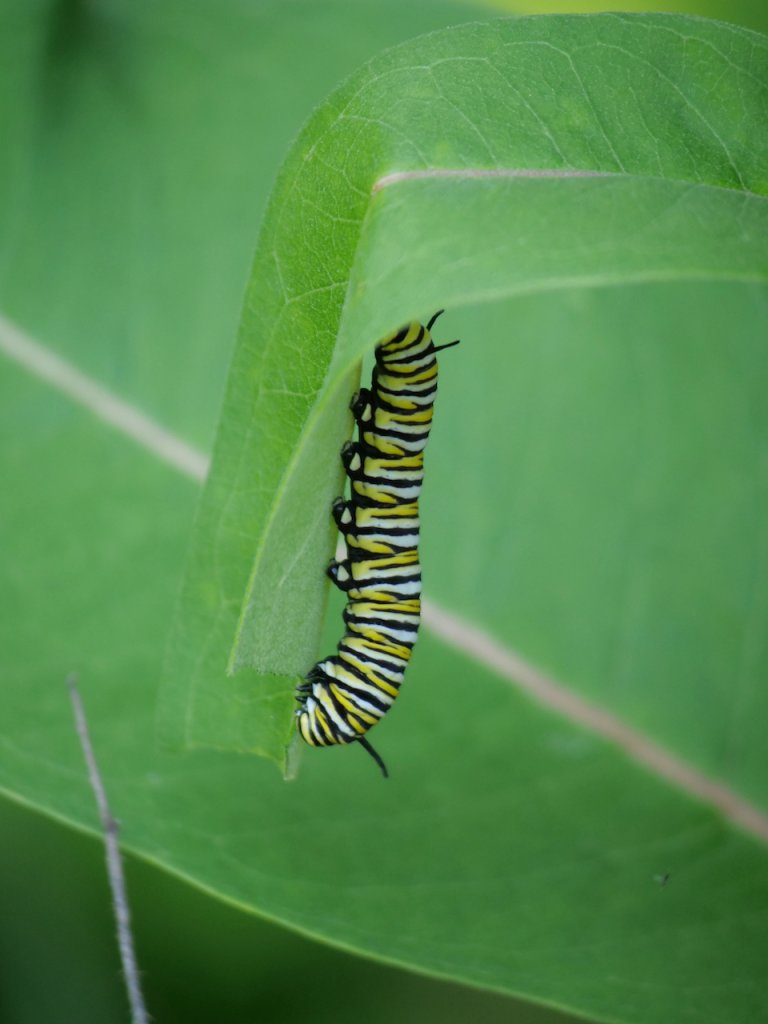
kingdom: Animalia
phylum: Arthropoda
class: Insecta
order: Lepidoptera
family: Nymphalidae
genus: Danaus
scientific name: Danaus plexippus
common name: Monarch
